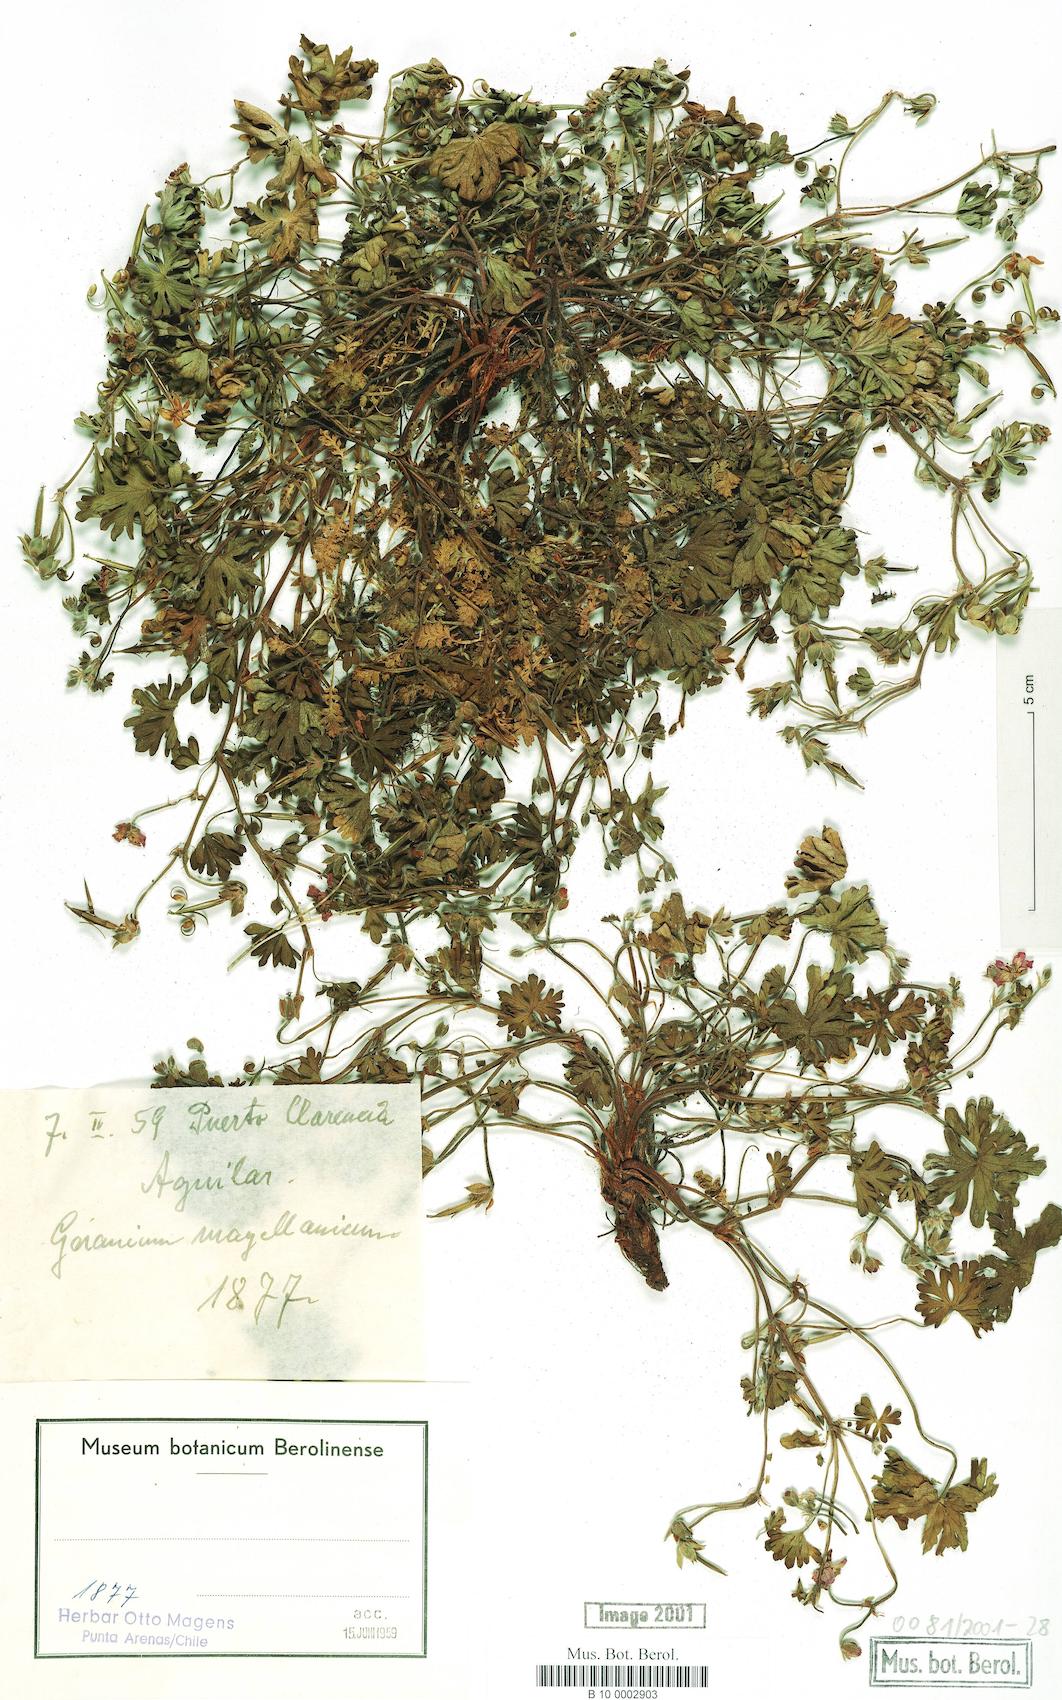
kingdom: Plantae
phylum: Tracheophyta
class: Magnoliopsida
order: Geraniales
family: Geraniaceae
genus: Geranium
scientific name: Geranium magellanicum
